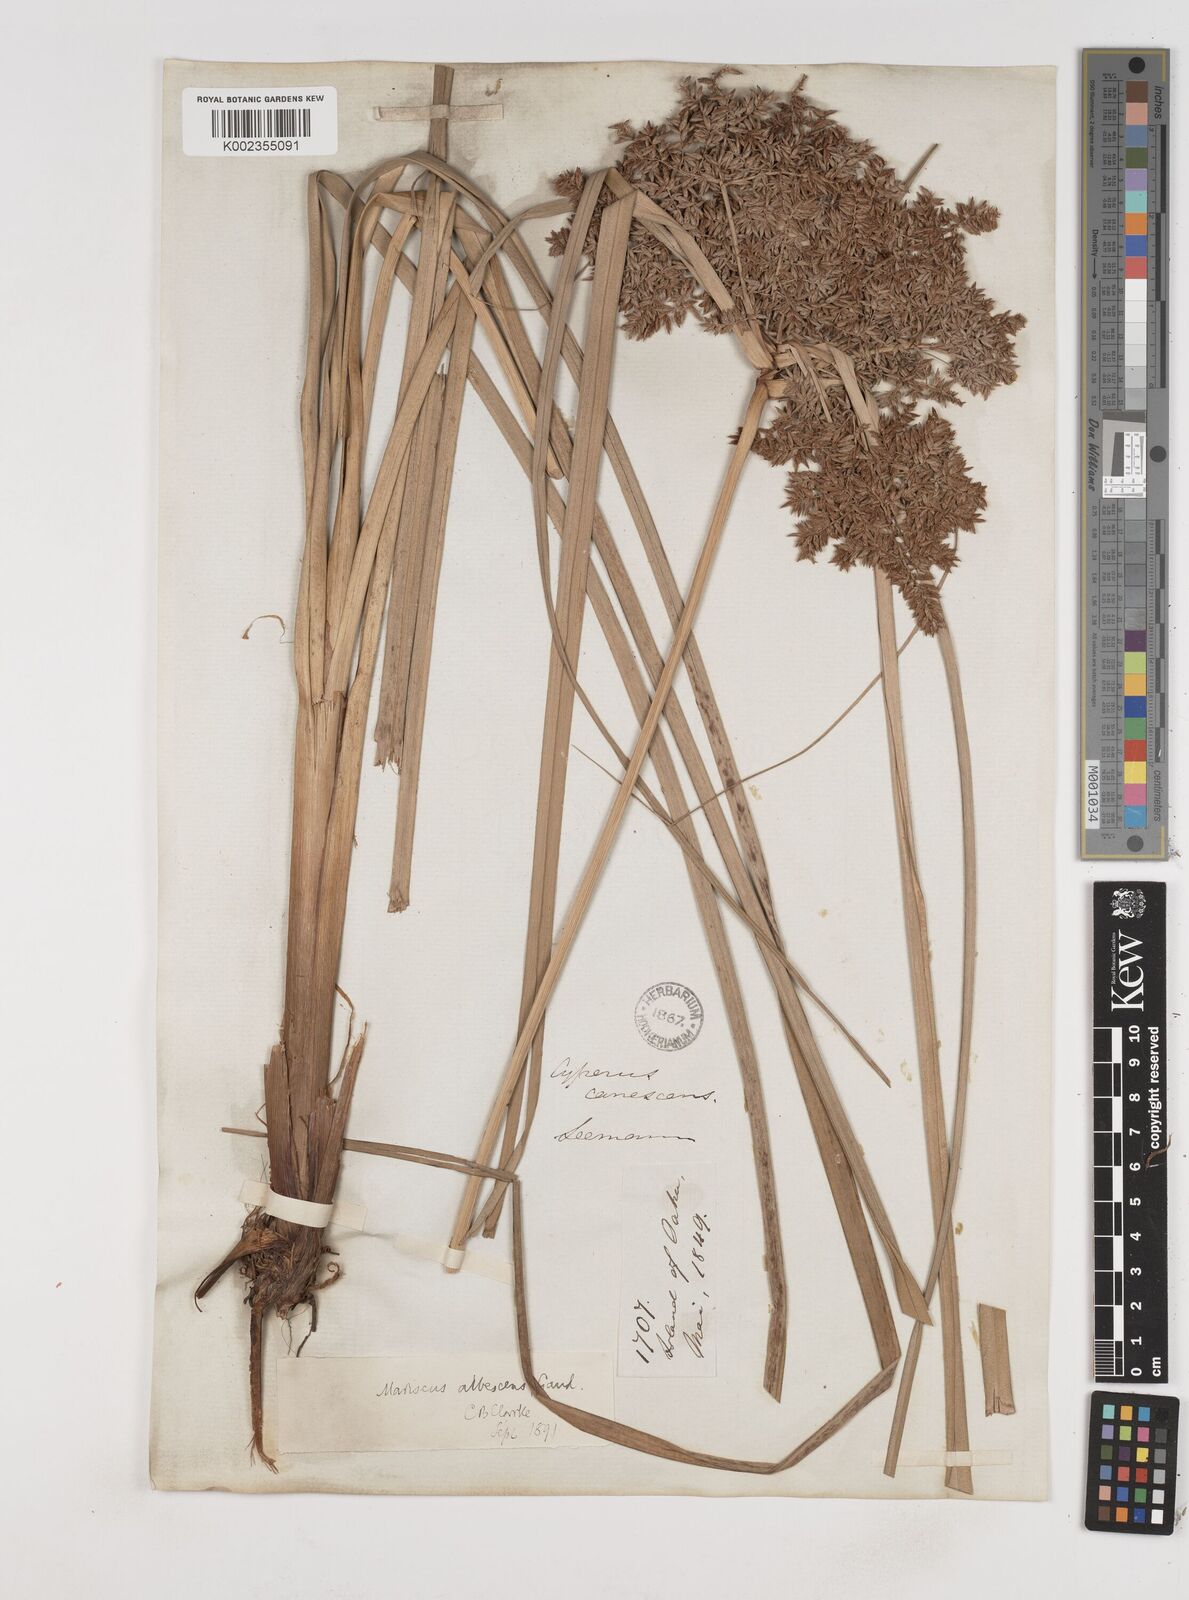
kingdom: Plantae
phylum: Tracheophyta
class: Liliopsida
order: Poales
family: Cyperaceae
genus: Cyperus
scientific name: Cyperus javanicus
